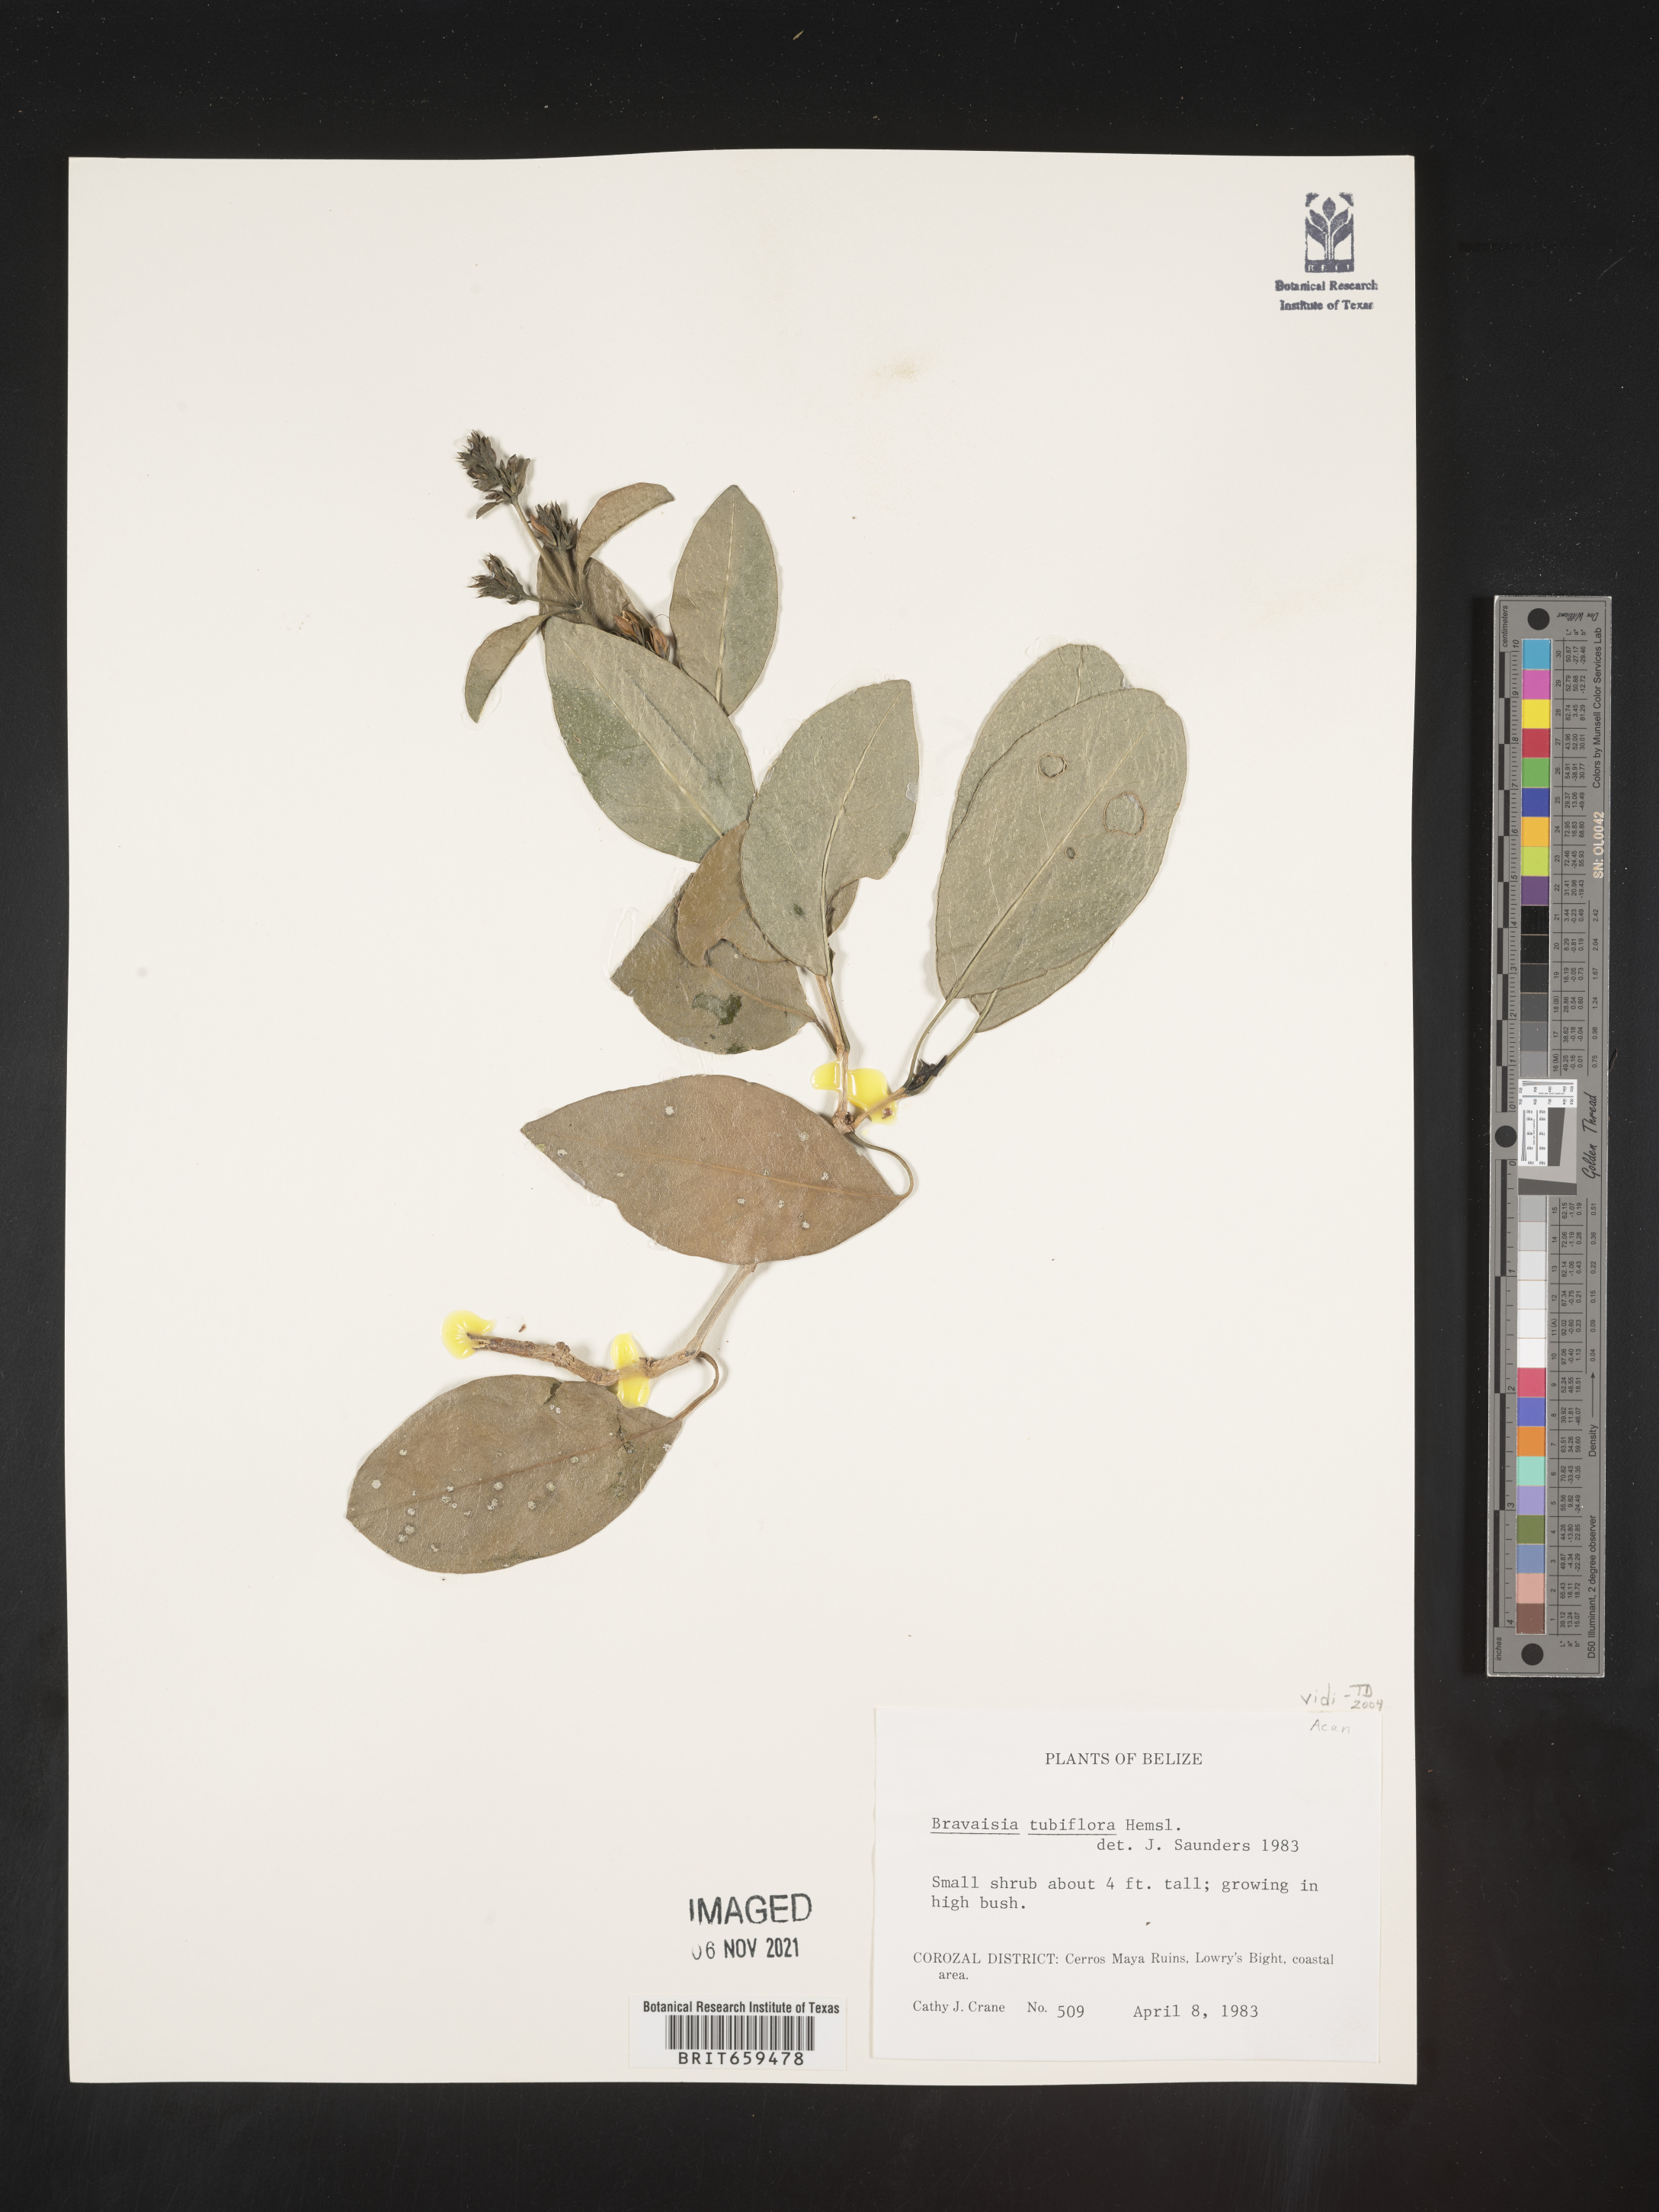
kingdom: Plantae
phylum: Tracheophyta
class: Magnoliopsida
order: Lamiales
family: Acanthaceae
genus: Bravaisia
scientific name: Bravaisia
